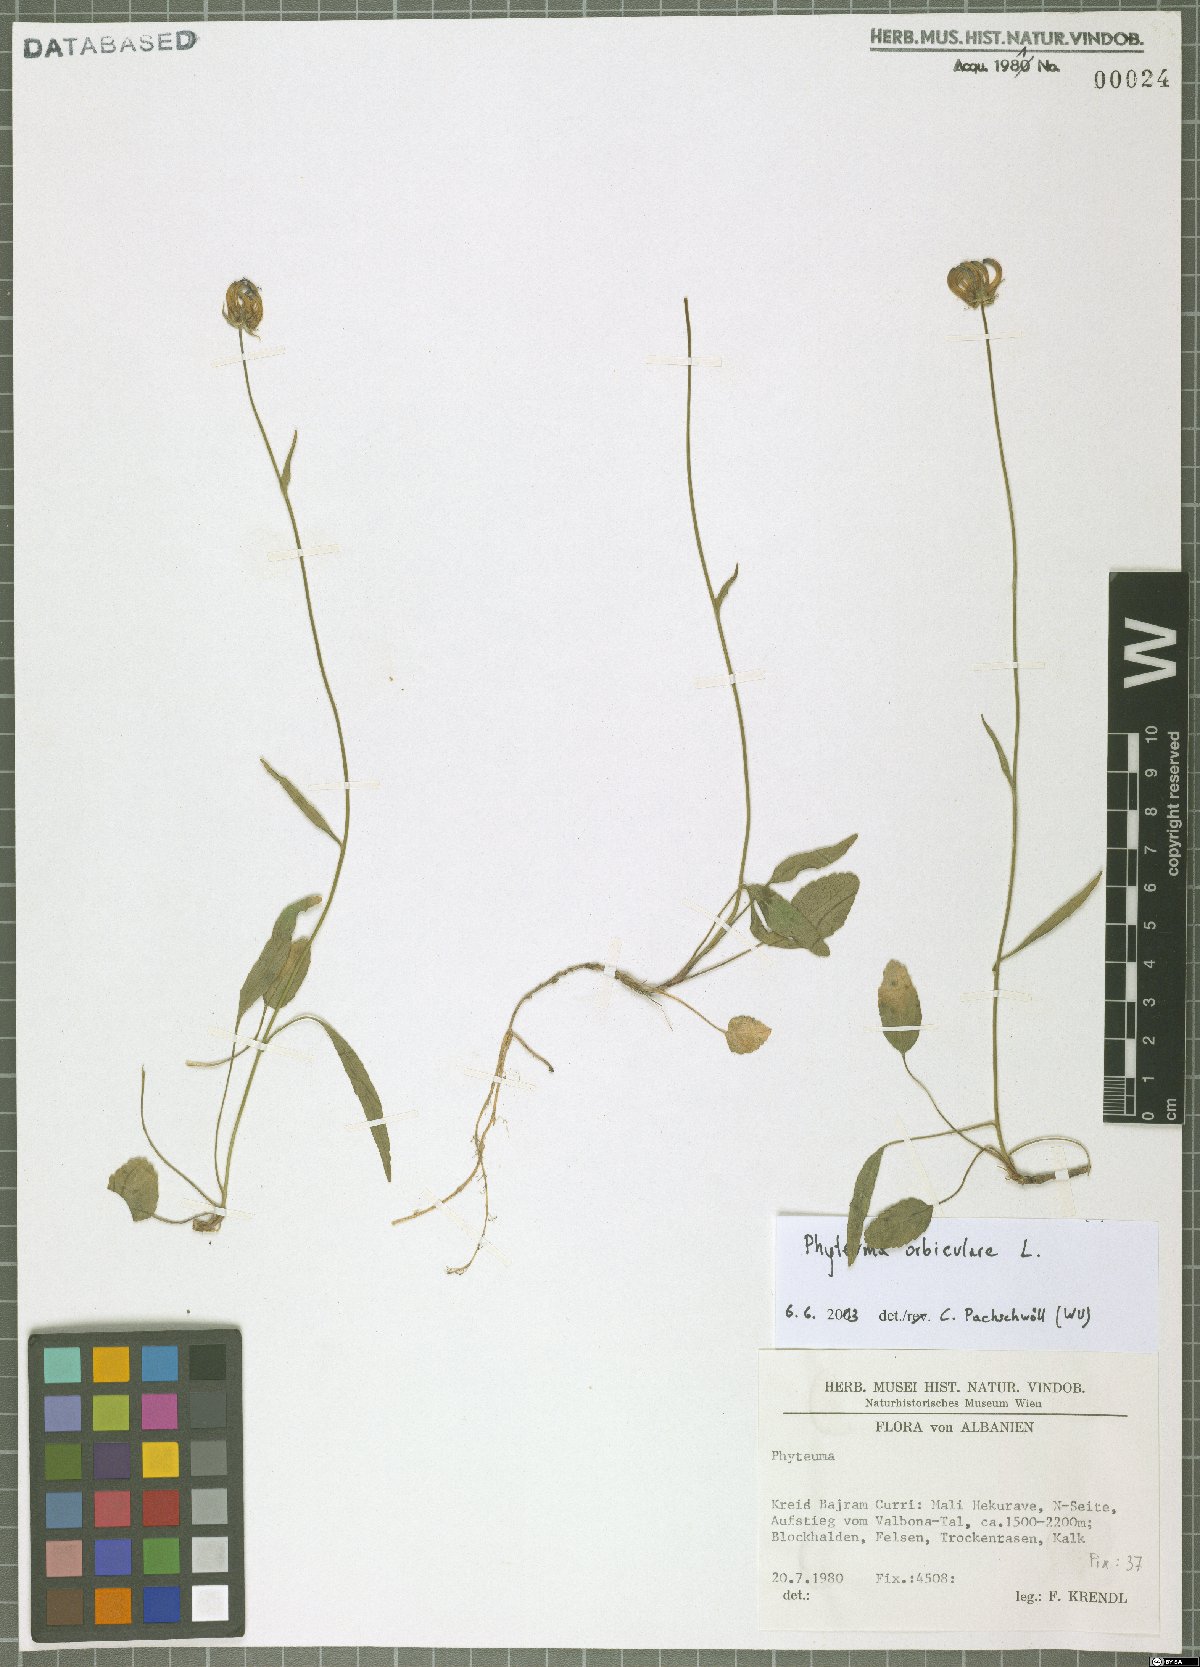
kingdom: Plantae
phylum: Tracheophyta
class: Magnoliopsida
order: Asterales
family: Campanulaceae
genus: Phyteuma
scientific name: Phyteuma orbiculare
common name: Round-headed rampion
